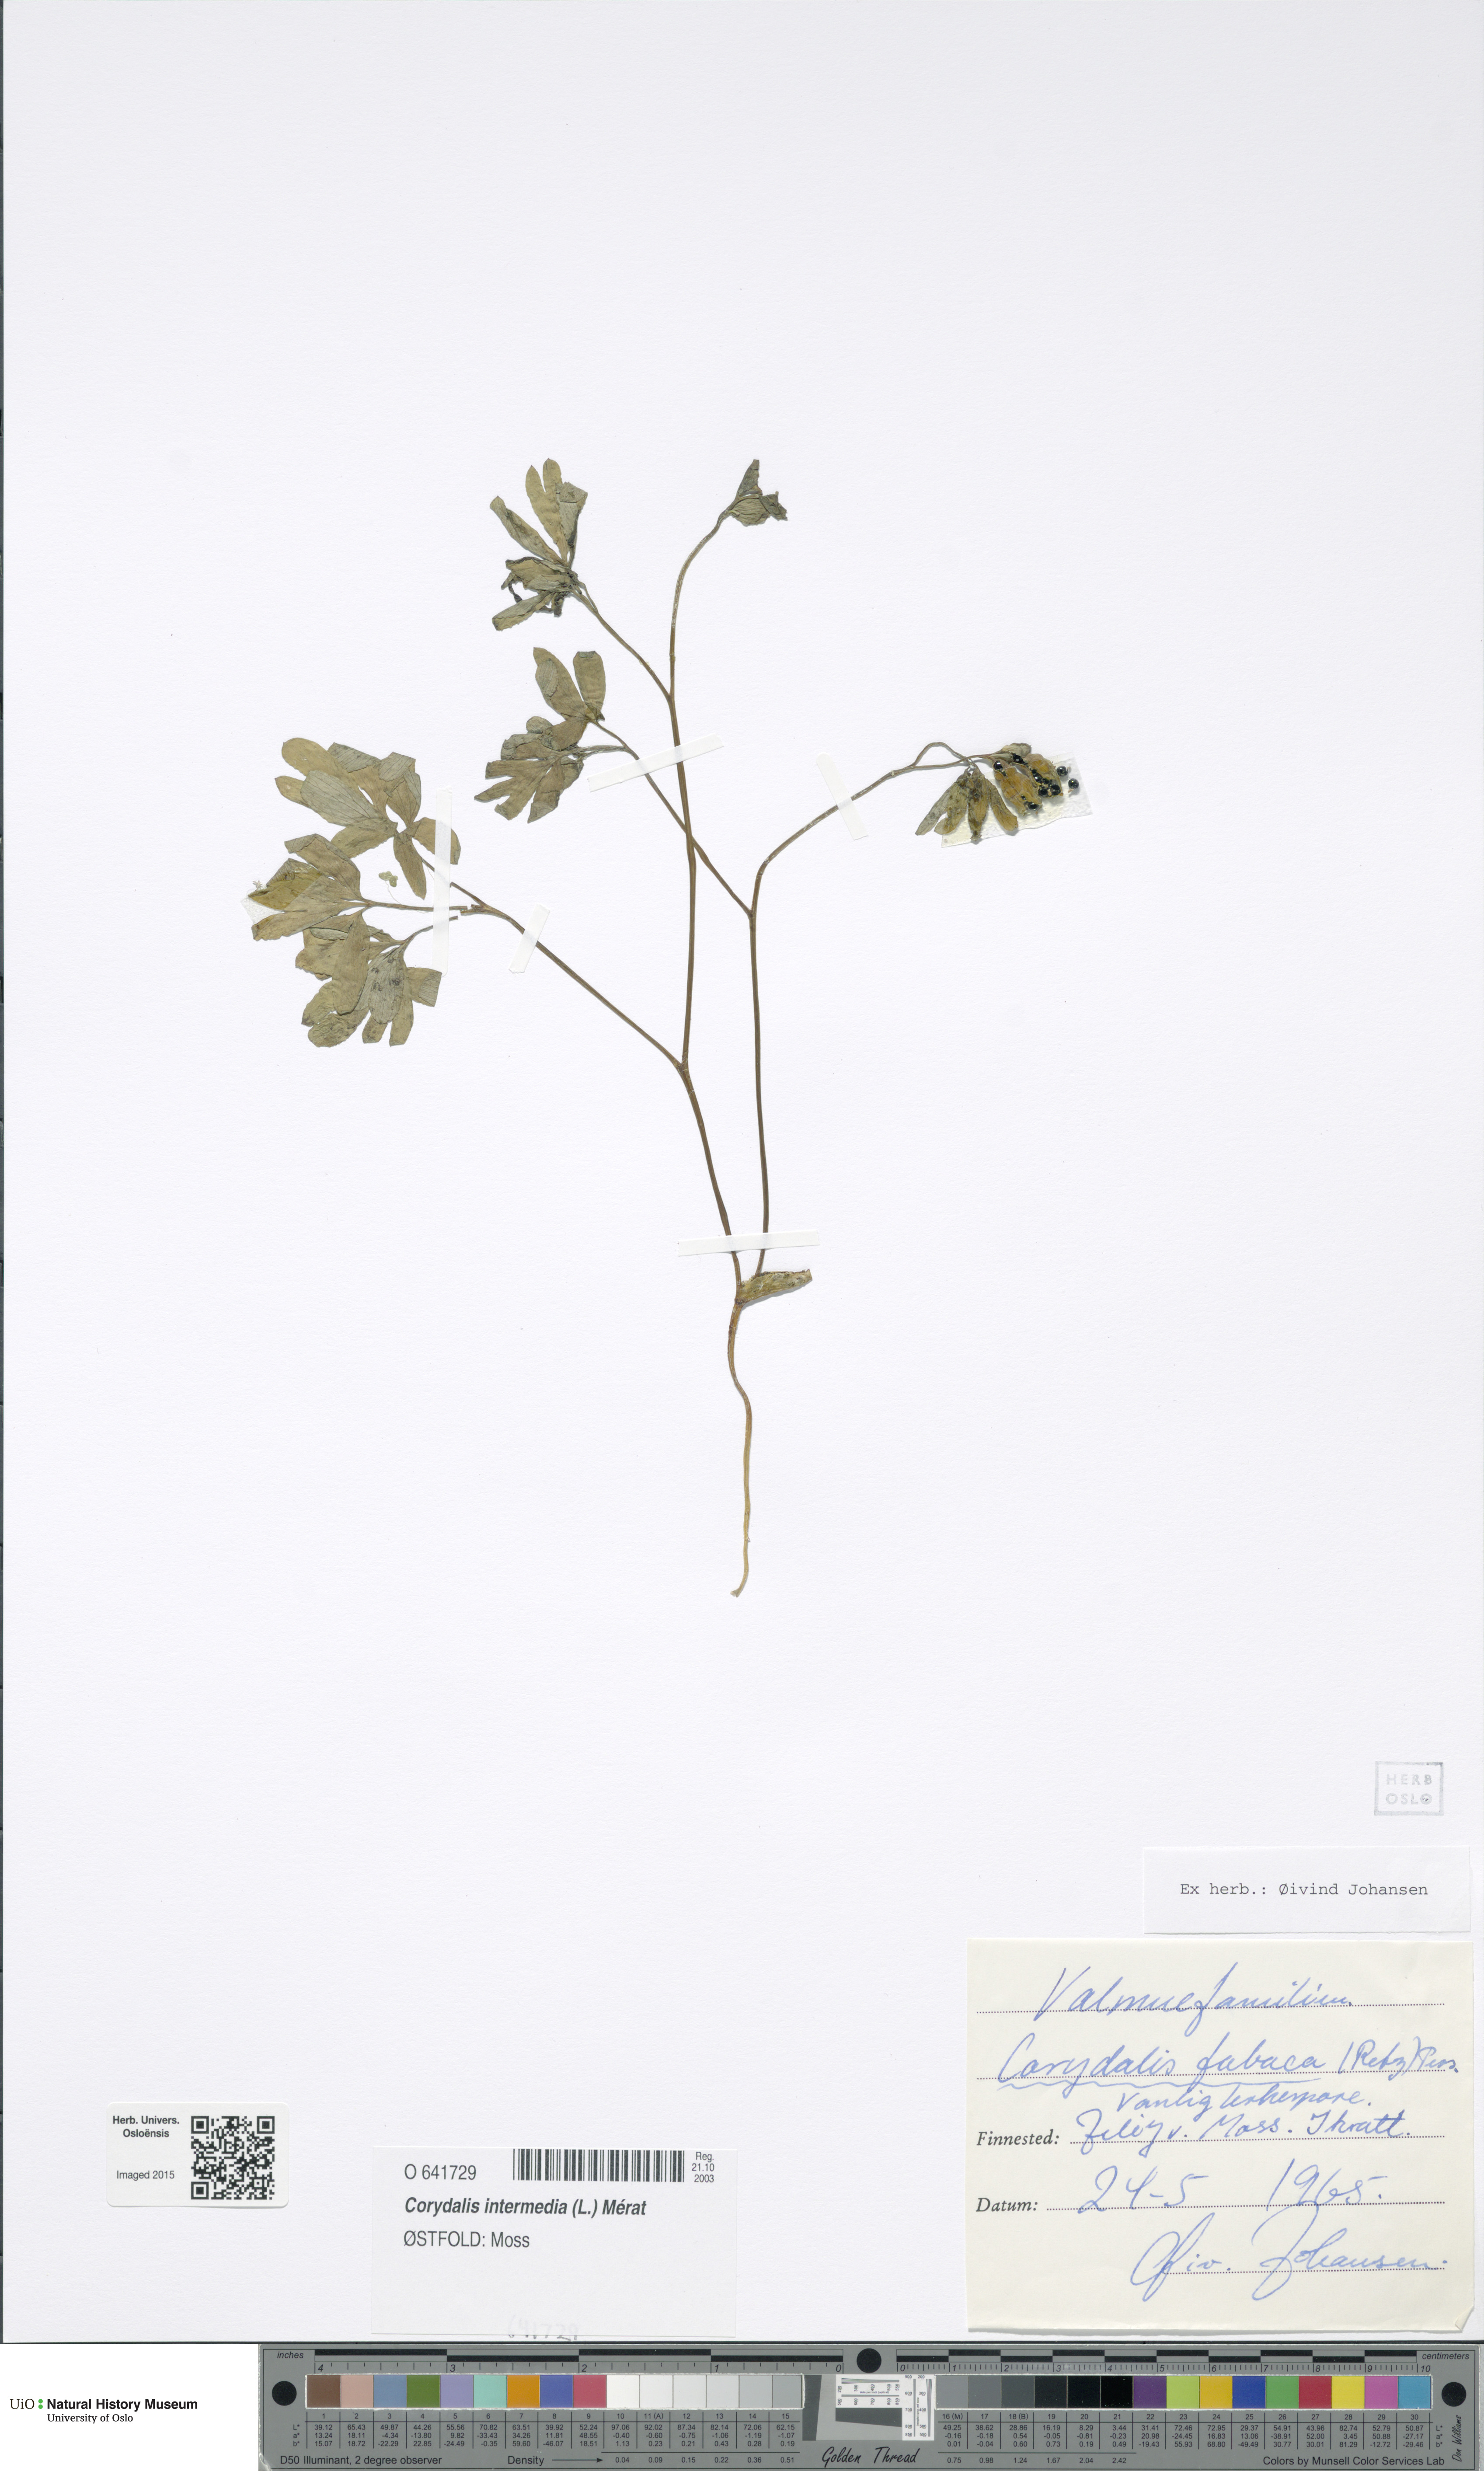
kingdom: Plantae
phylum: Tracheophyta
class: Magnoliopsida
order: Ranunculales
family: Papaveraceae
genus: Corydalis
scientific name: Corydalis intermedia
